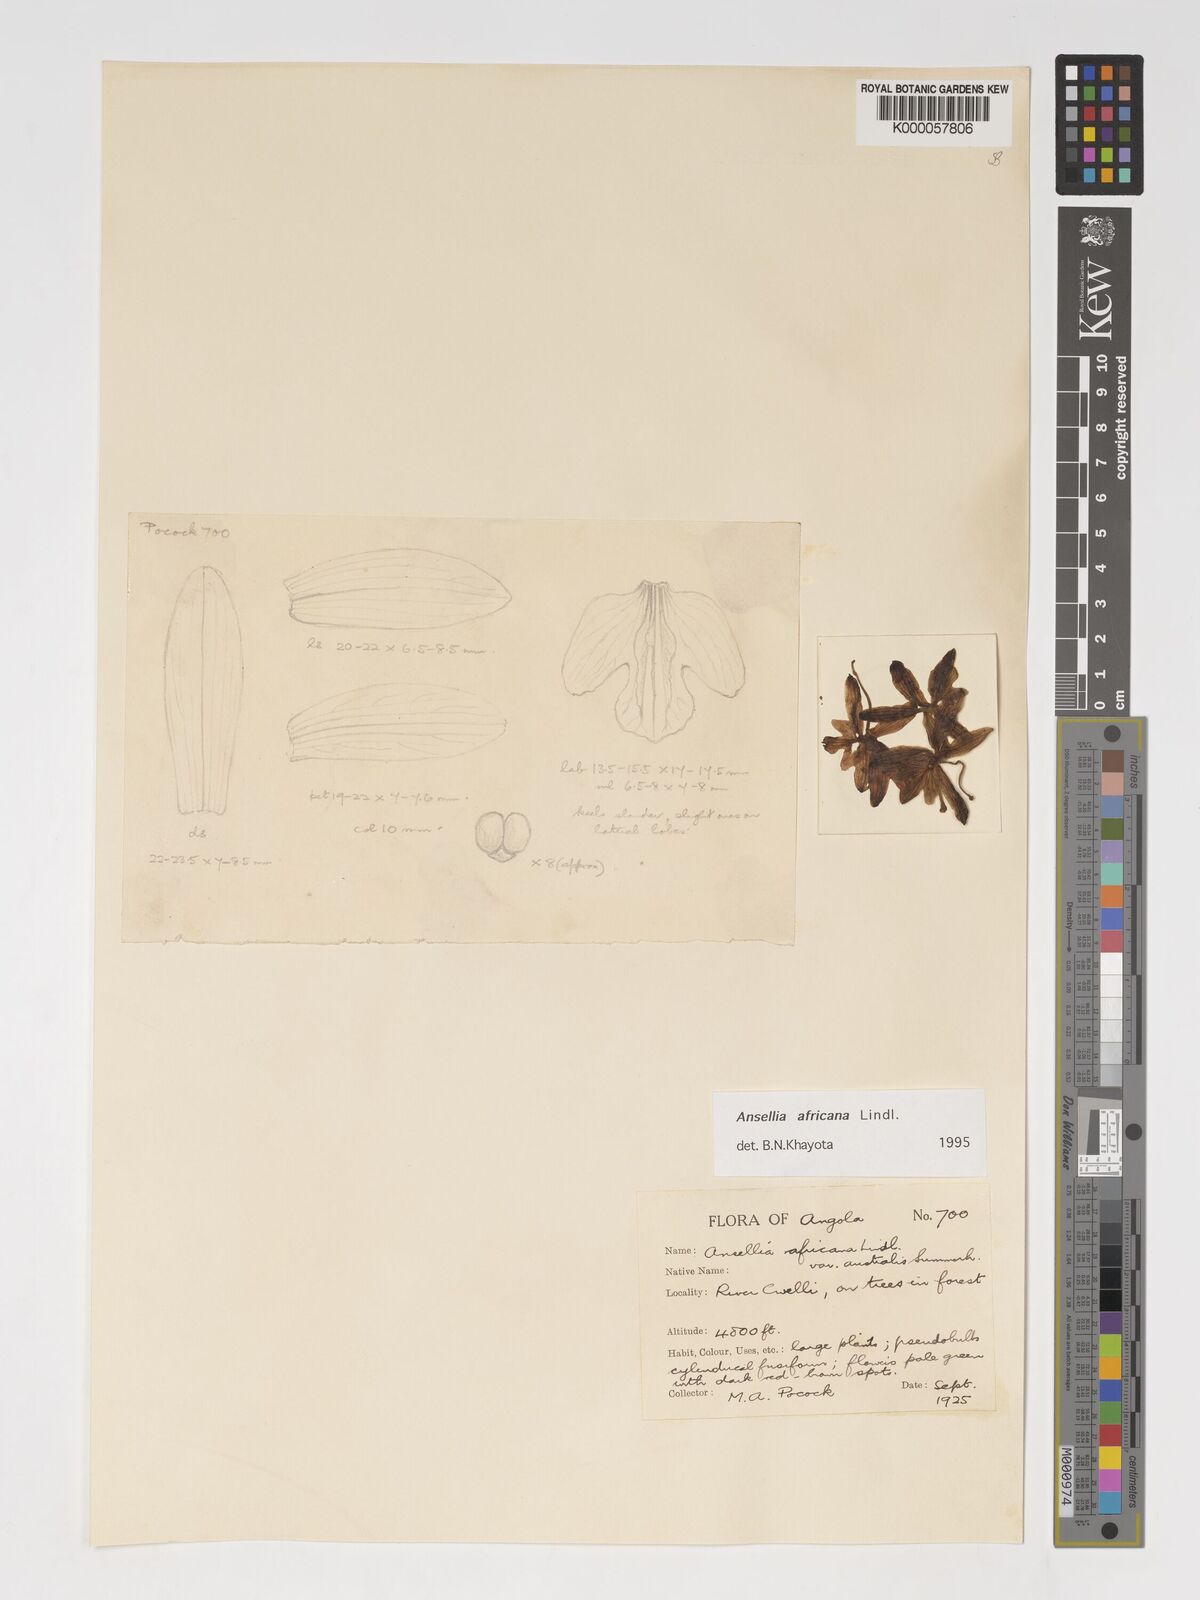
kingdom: Plantae
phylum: Tracheophyta
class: Liliopsida
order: Asparagales
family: Orchidaceae
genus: Ansellia
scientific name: Ansellia africana
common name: African ansellia
